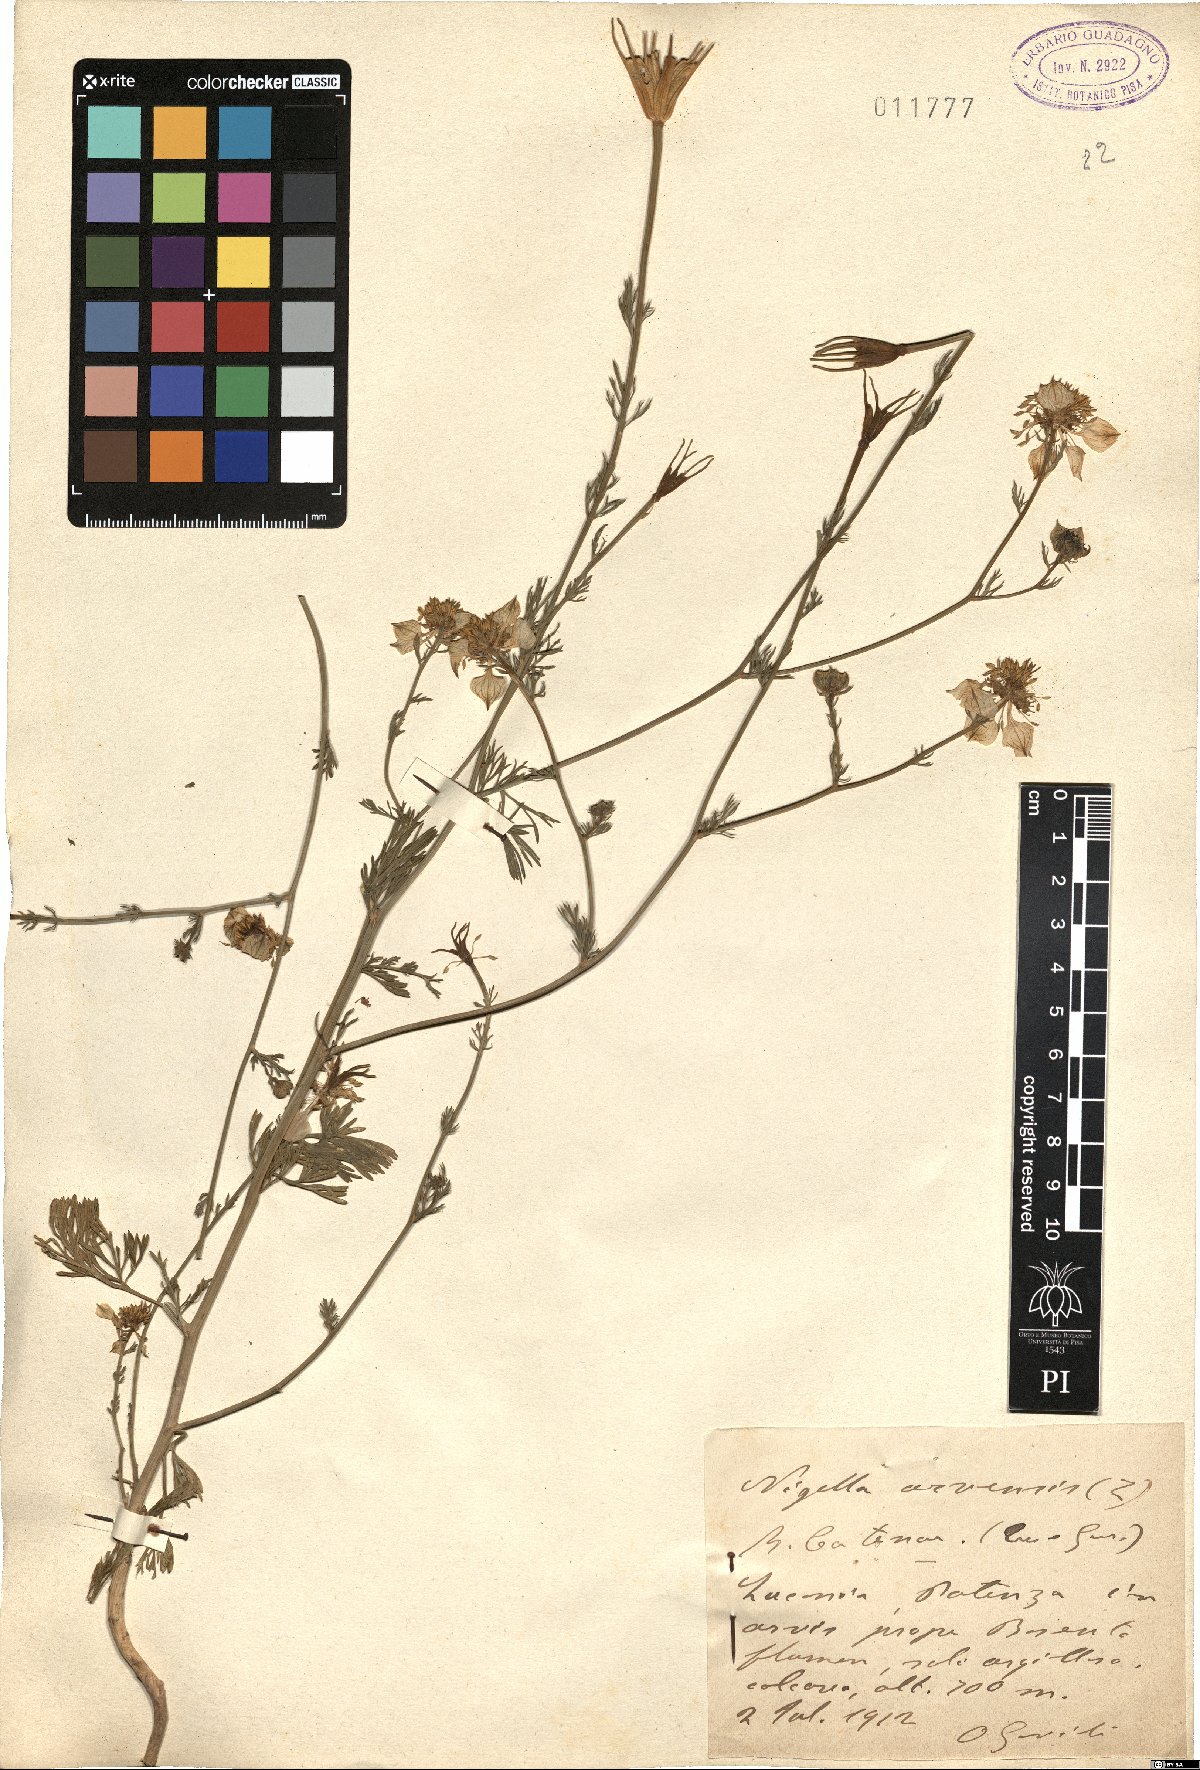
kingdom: Plantae
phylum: Tracheophyta
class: Magnoliopsida
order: Ranunculales
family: Ranunculaceae
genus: Nigella
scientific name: Nigella arvensis
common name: Wild fennel-flower
